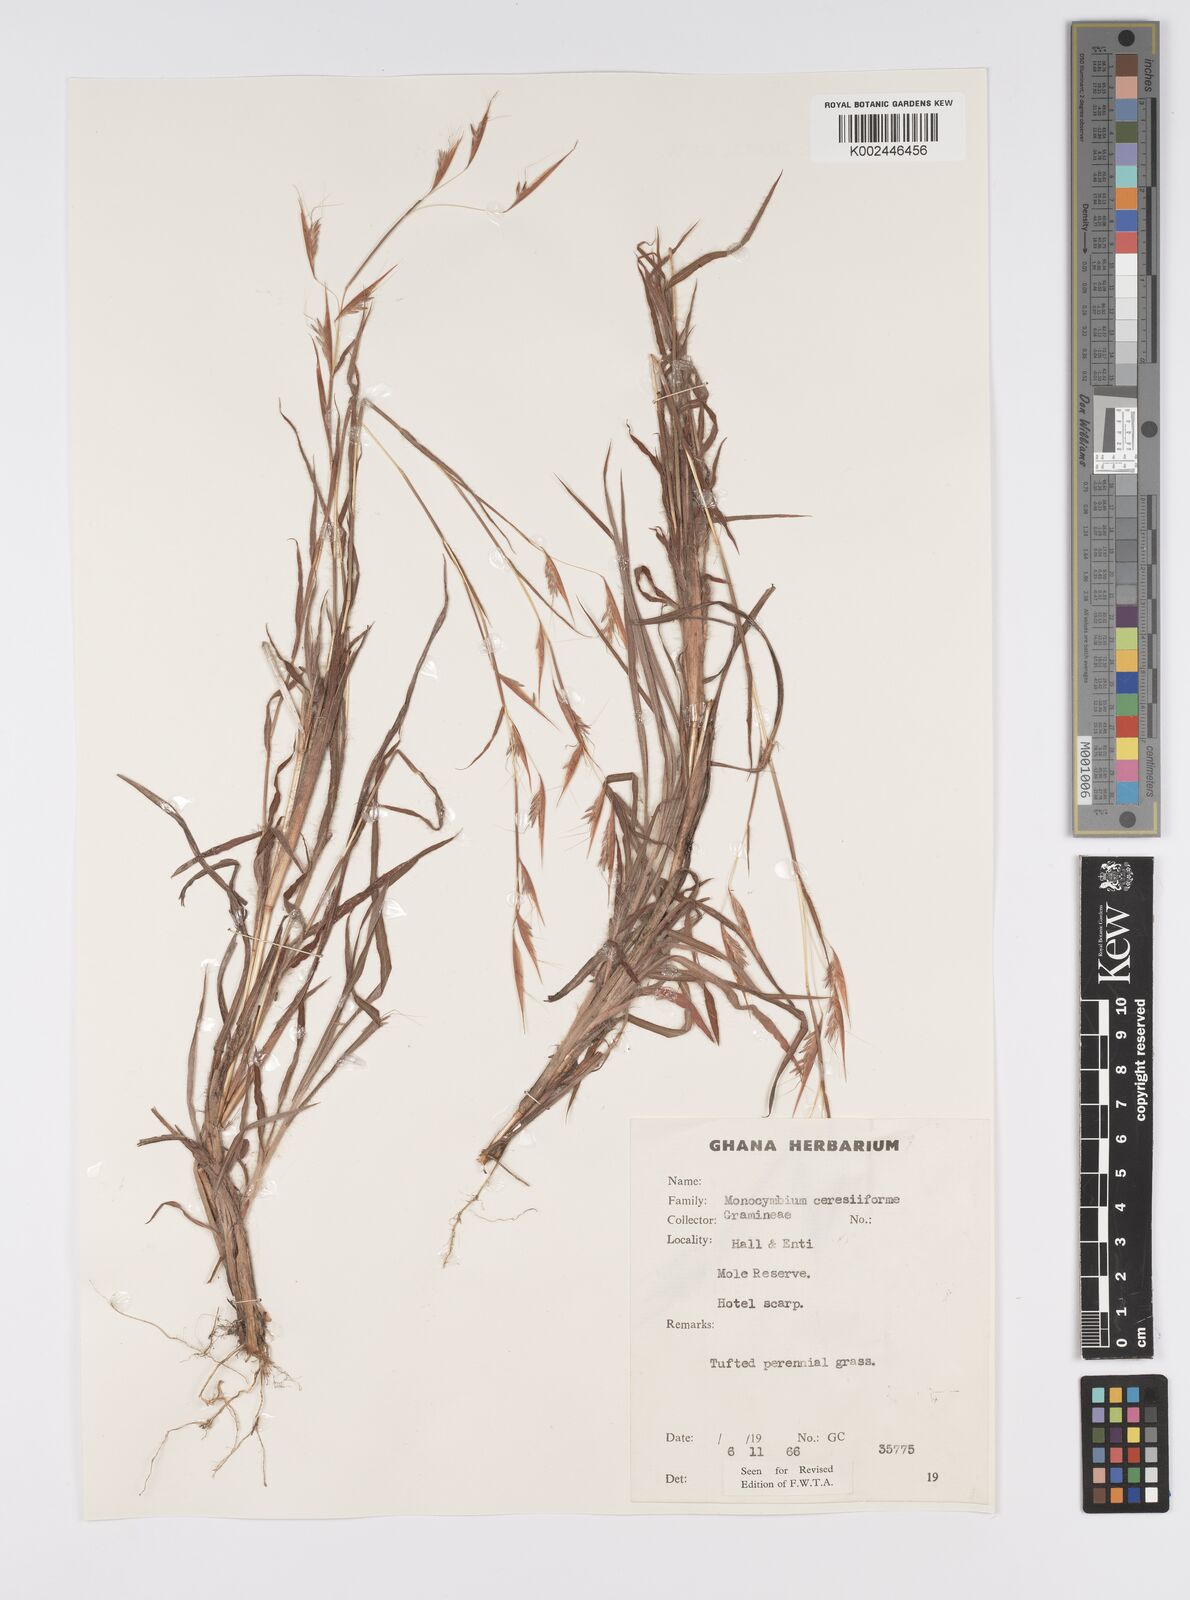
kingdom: Plantae
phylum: Tracheophyta
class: Liliopsida
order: Poales
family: Poaceae
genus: Monocymbium
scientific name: Monocymbium ceresiiforme
